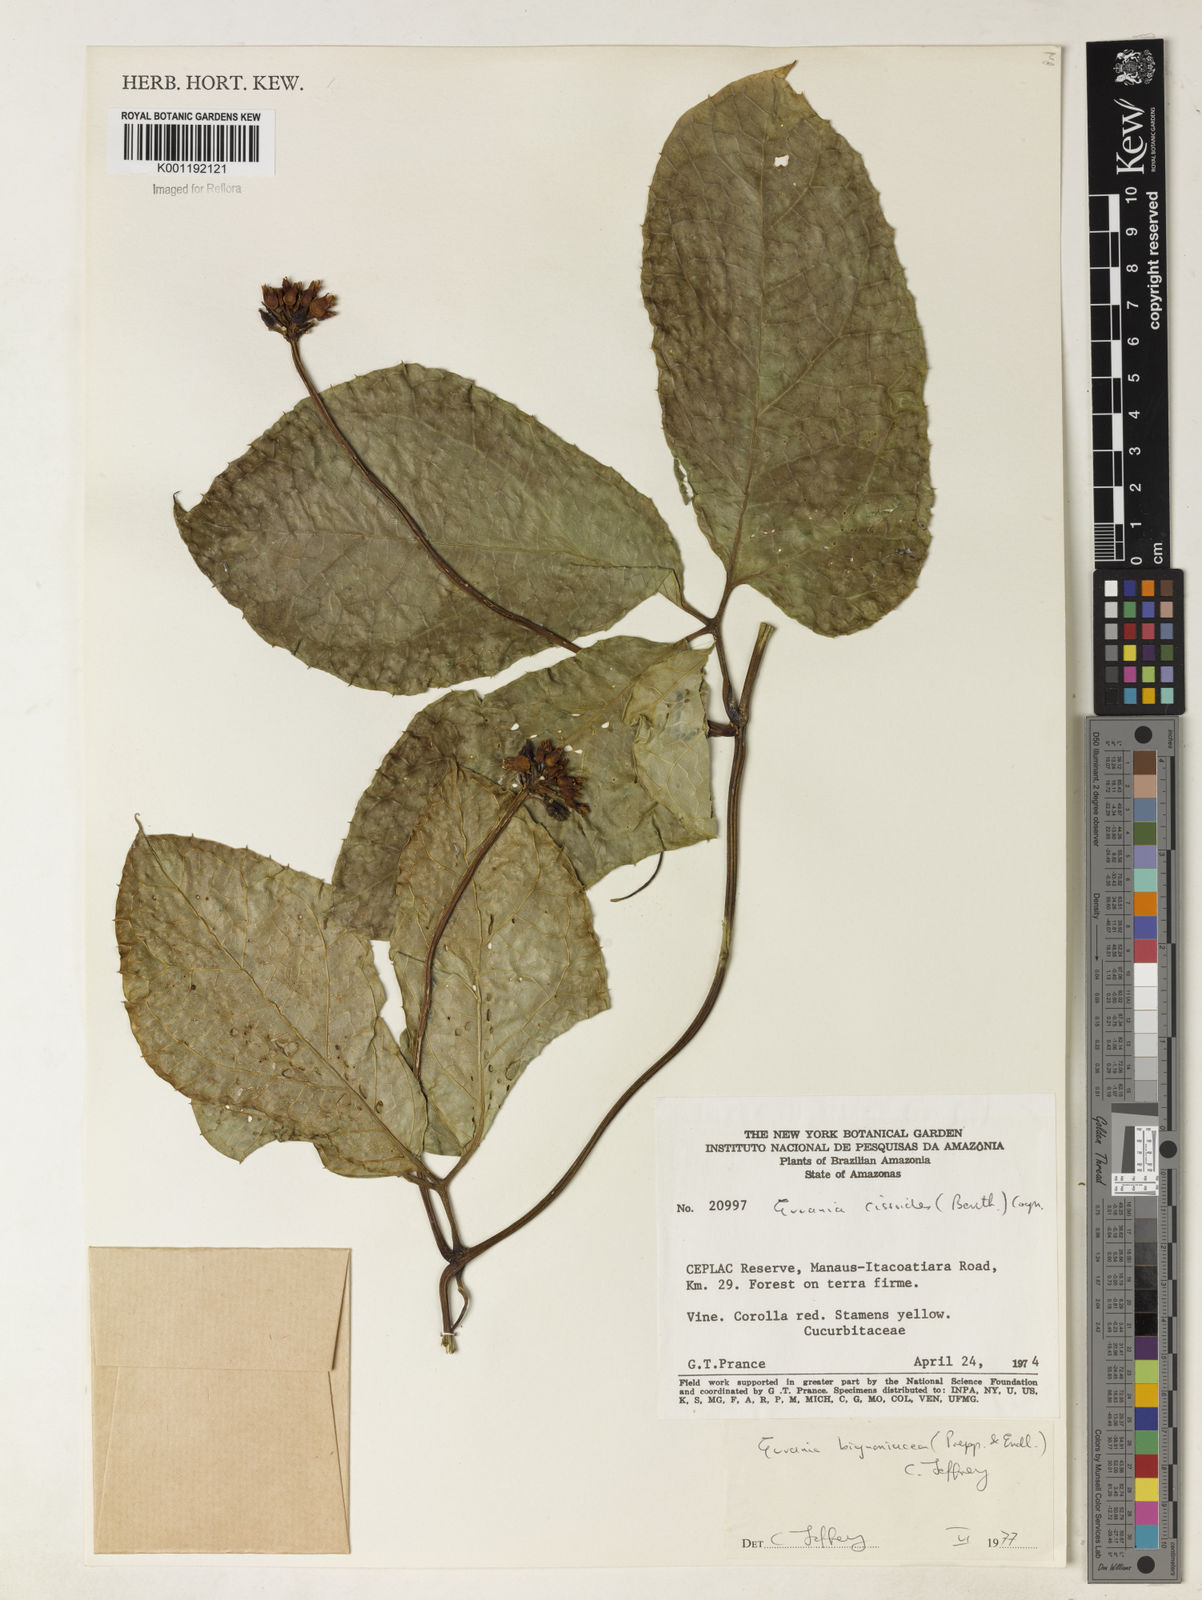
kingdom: Plantae
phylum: Tracheophyta
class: Magnoliopsida
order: Cucurbitales
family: Cucurbitaceae
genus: Gurania
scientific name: Gurania bignoniacea
